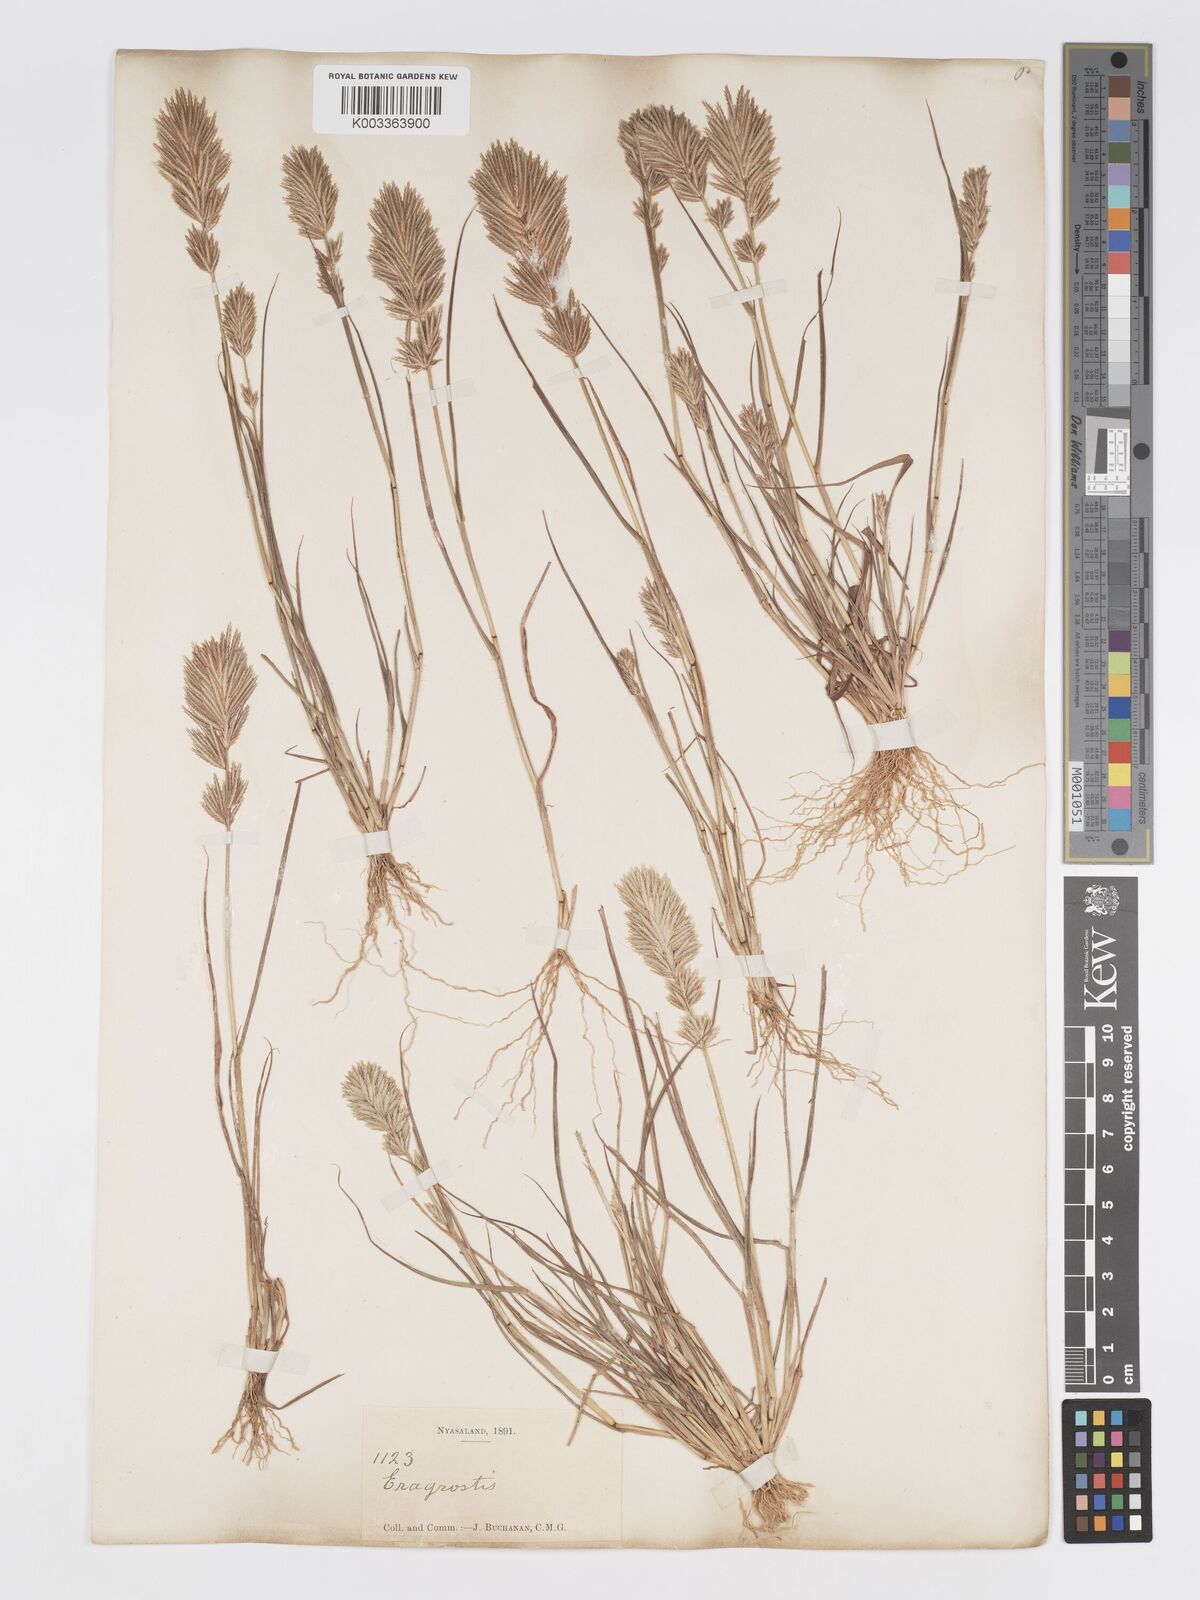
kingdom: Plantae
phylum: Tracheophyta
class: Liliopsida
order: Poales
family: Poaceae
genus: Eragrostis
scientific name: Eragrostis patens
